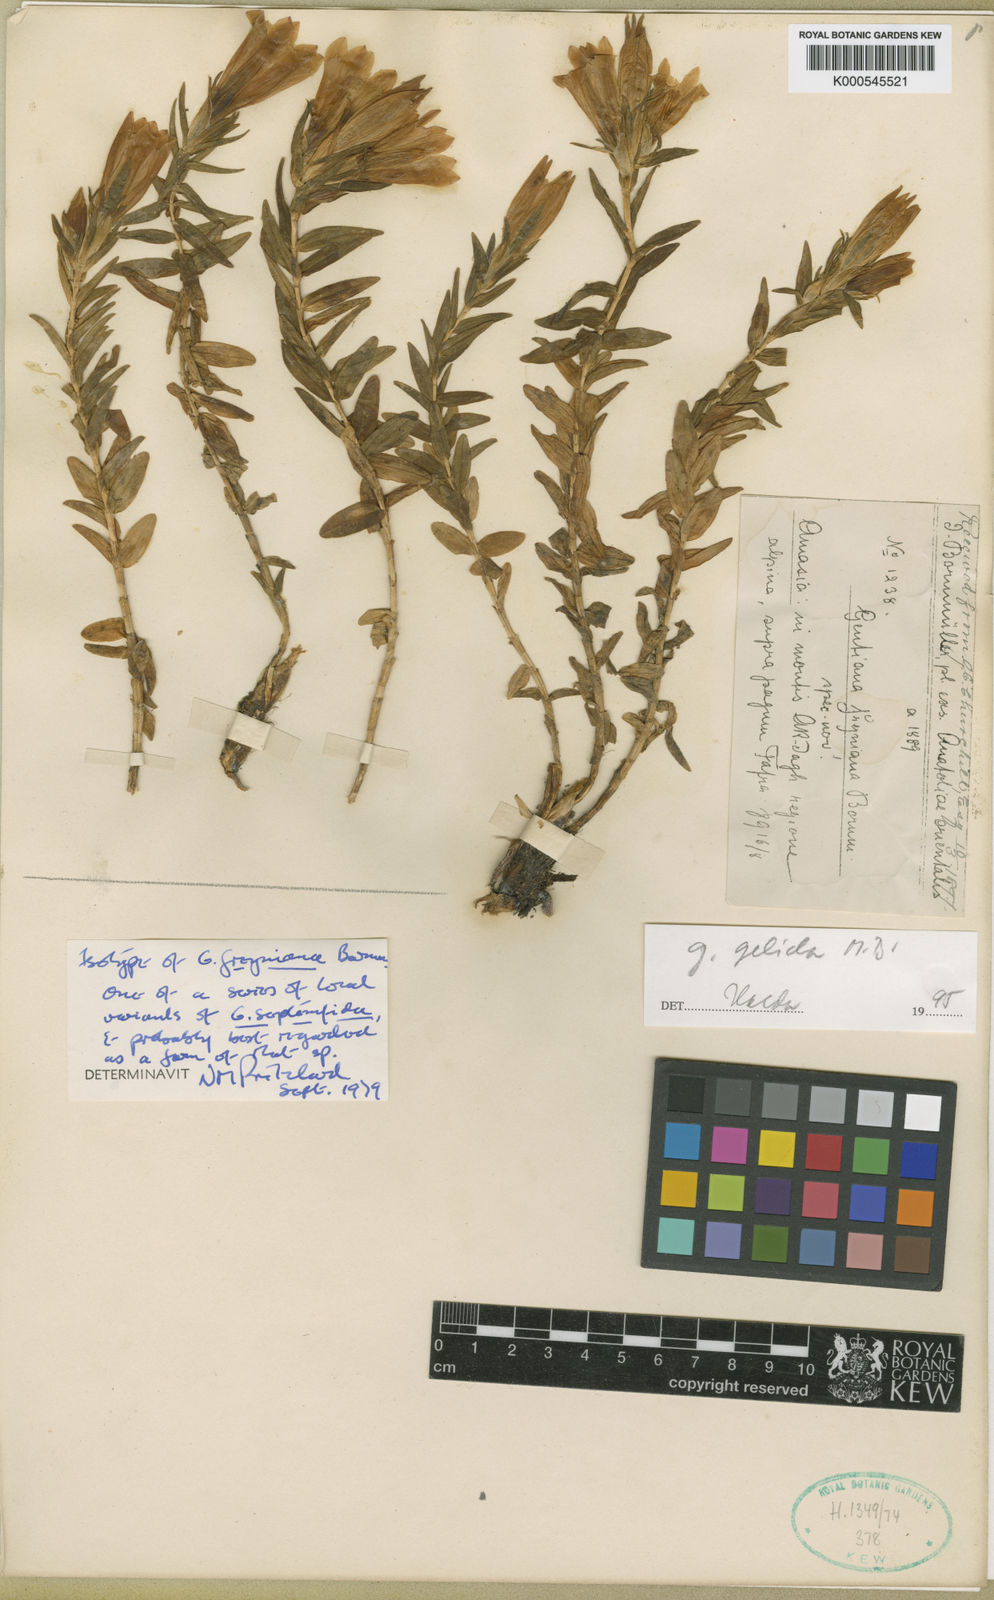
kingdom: Plantae
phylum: Tracheophyta
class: Magnoliopsida
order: Gentianales
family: Gentianaceae
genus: Gentiana
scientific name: Gentiana septemfida
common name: Crested gentian
